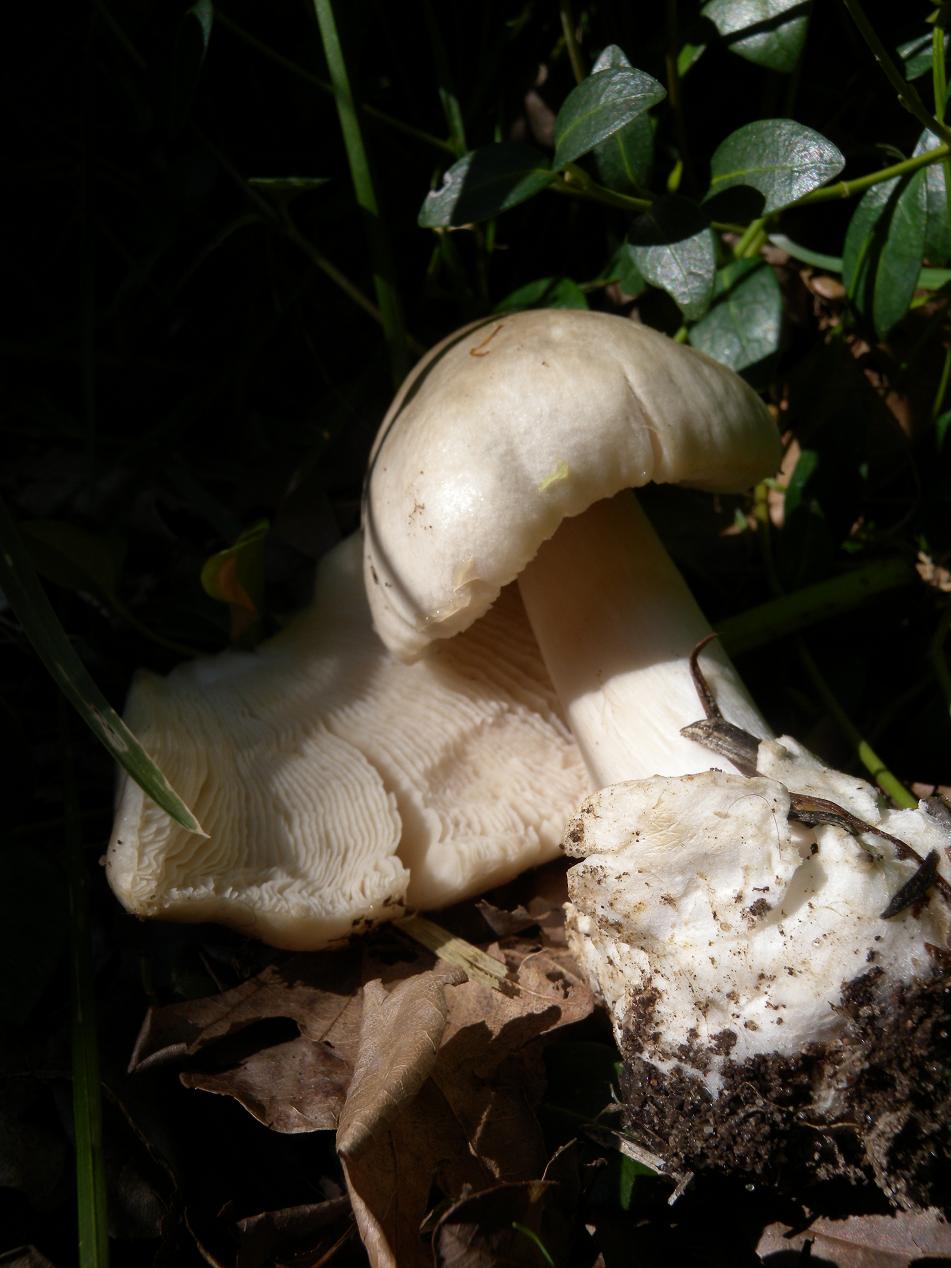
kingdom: Fungi
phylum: Basidiomycota
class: Agaricomycetes
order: Agaricales
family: Pluteaceae
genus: Volvopluteus
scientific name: Volvopluteus gloiocephalus
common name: høj posesvamp
